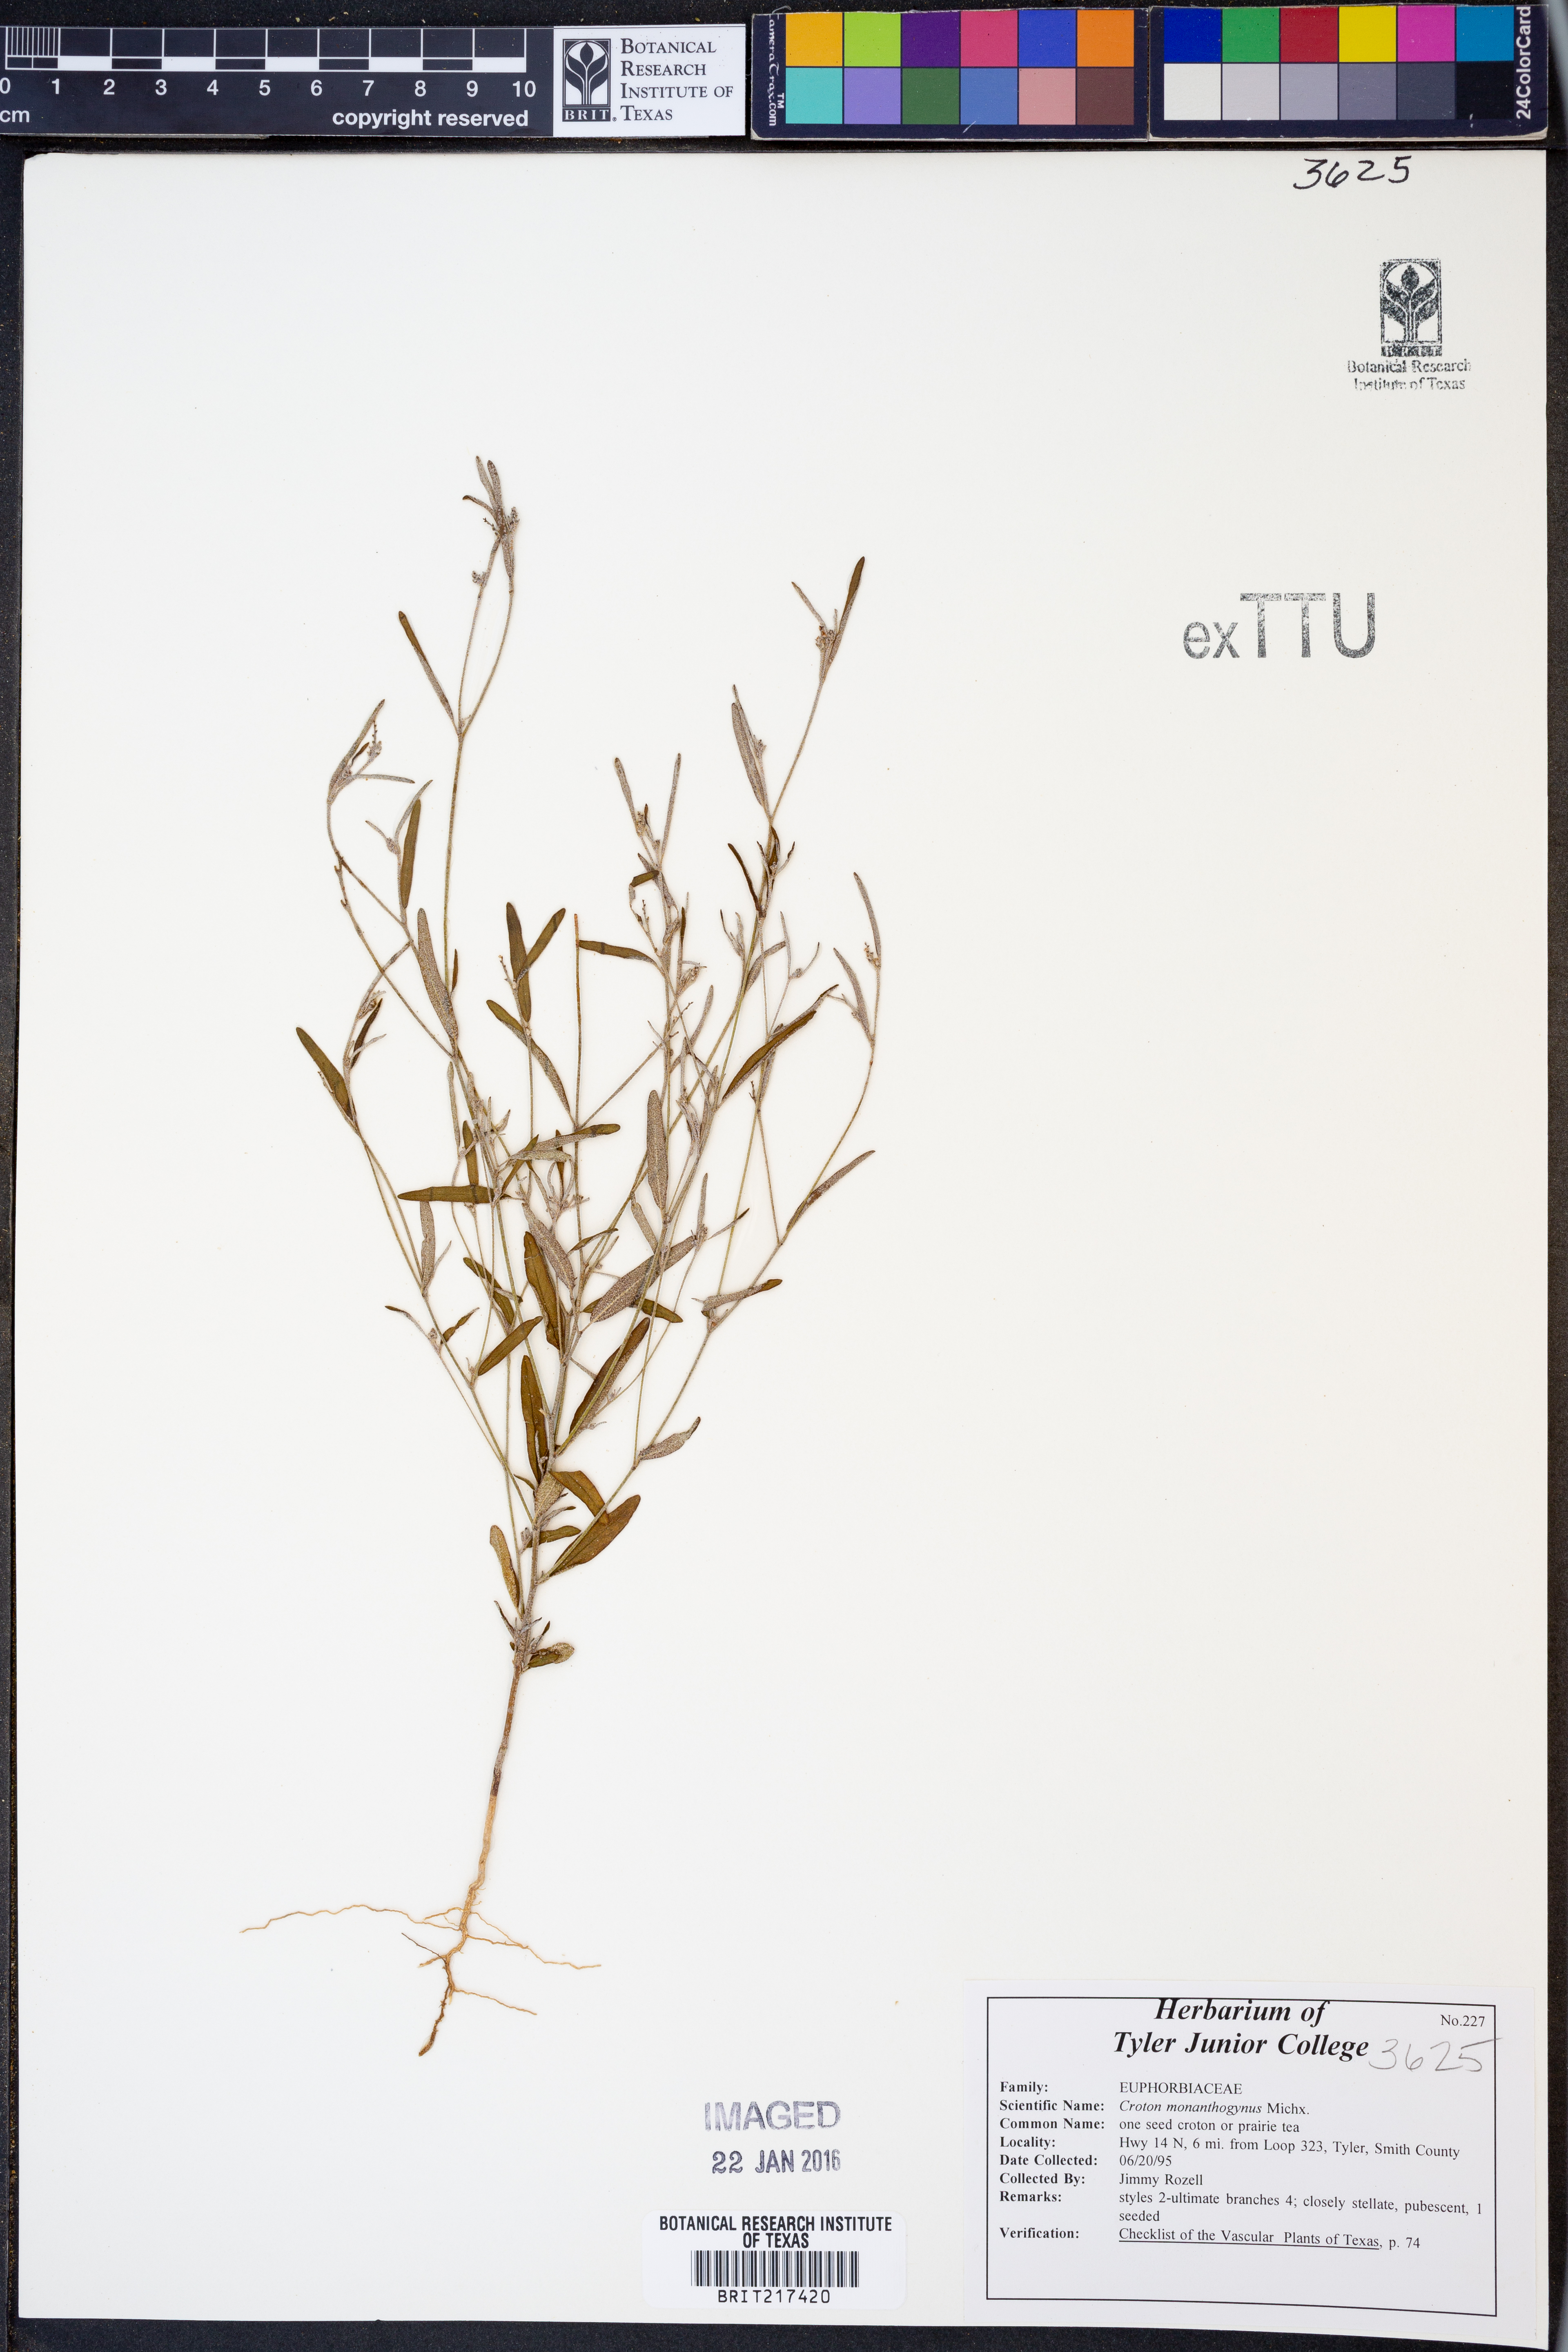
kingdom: Plantae
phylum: Tracheophyta
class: Magnoliopsida
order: Malpighiales
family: Euphorbiaceae
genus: Croton
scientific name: Croton monanthogynus
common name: One-seed croton
